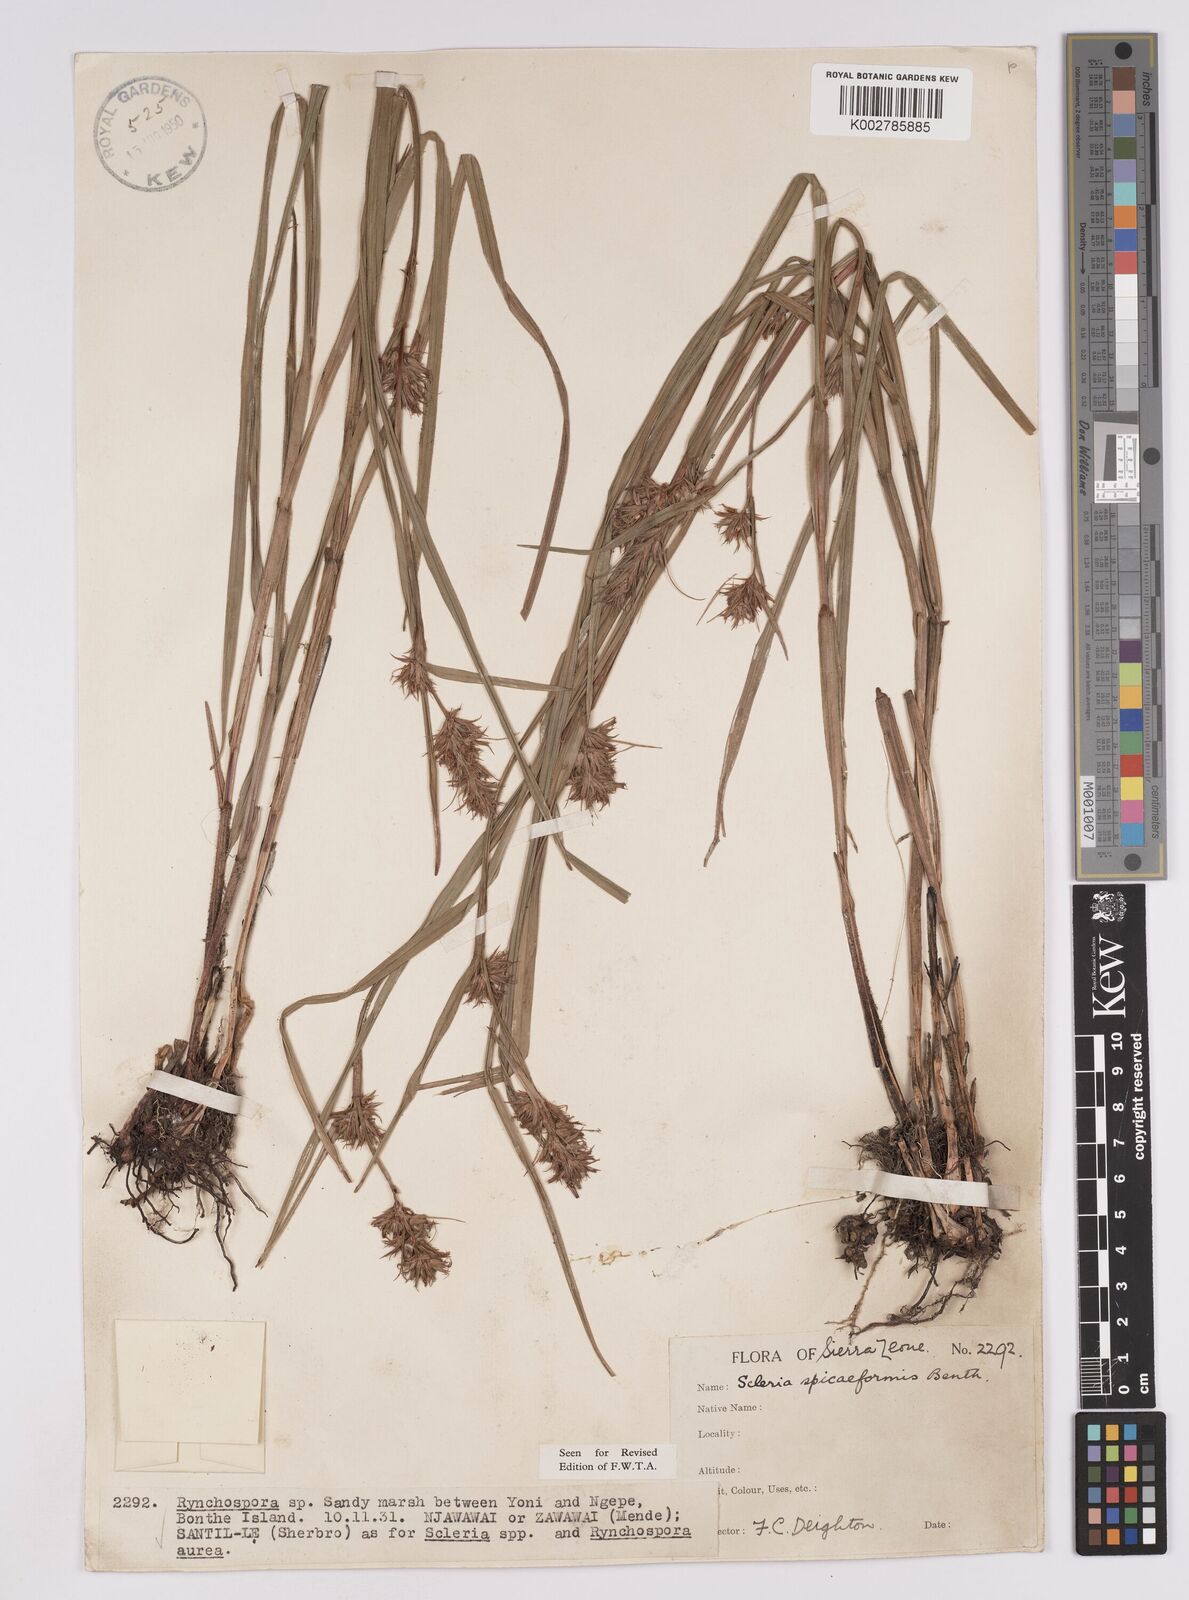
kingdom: Plantae
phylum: Tracheophyta
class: Liliopsida
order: Poales
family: Cyperaceae
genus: Scleria
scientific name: Scleria spiciformis
